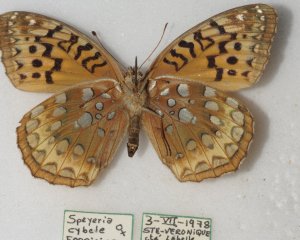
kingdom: Animalia
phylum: Arthropoda
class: Insecta
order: Lepidoptera
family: Nymphalidae
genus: Speyeria
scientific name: Speyeria cybele
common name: Great Spangled Fritillary
